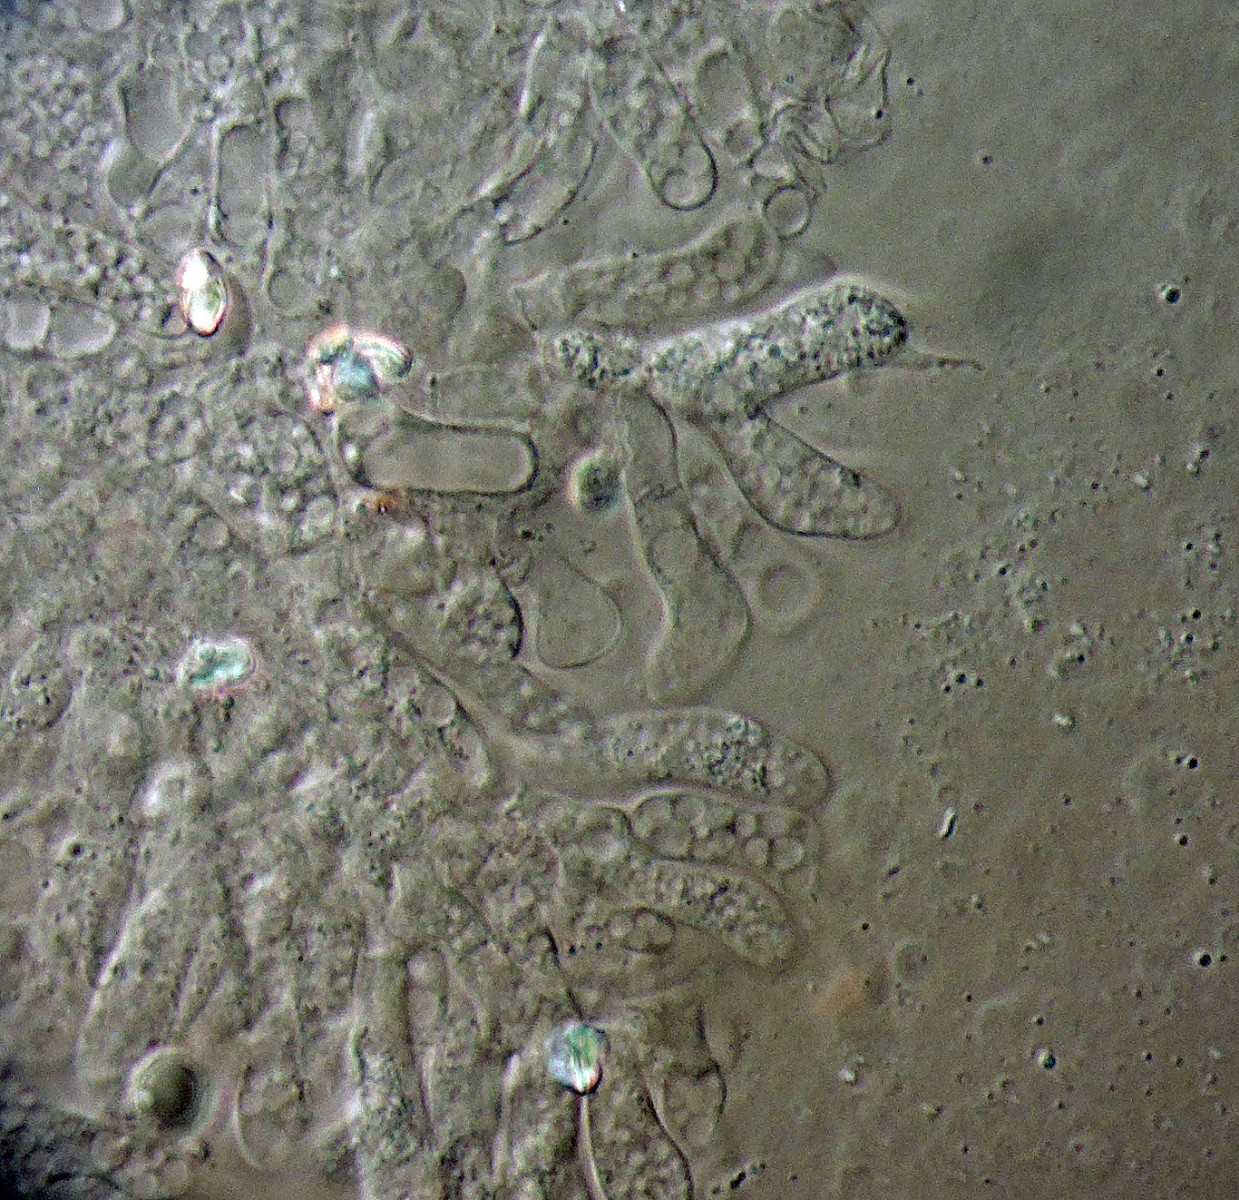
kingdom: Fungi
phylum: Basidiomycota
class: Agaricomycetes
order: Agaricales
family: Entolomataceae
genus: Entoloma
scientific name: Entoloma pseudoturci
